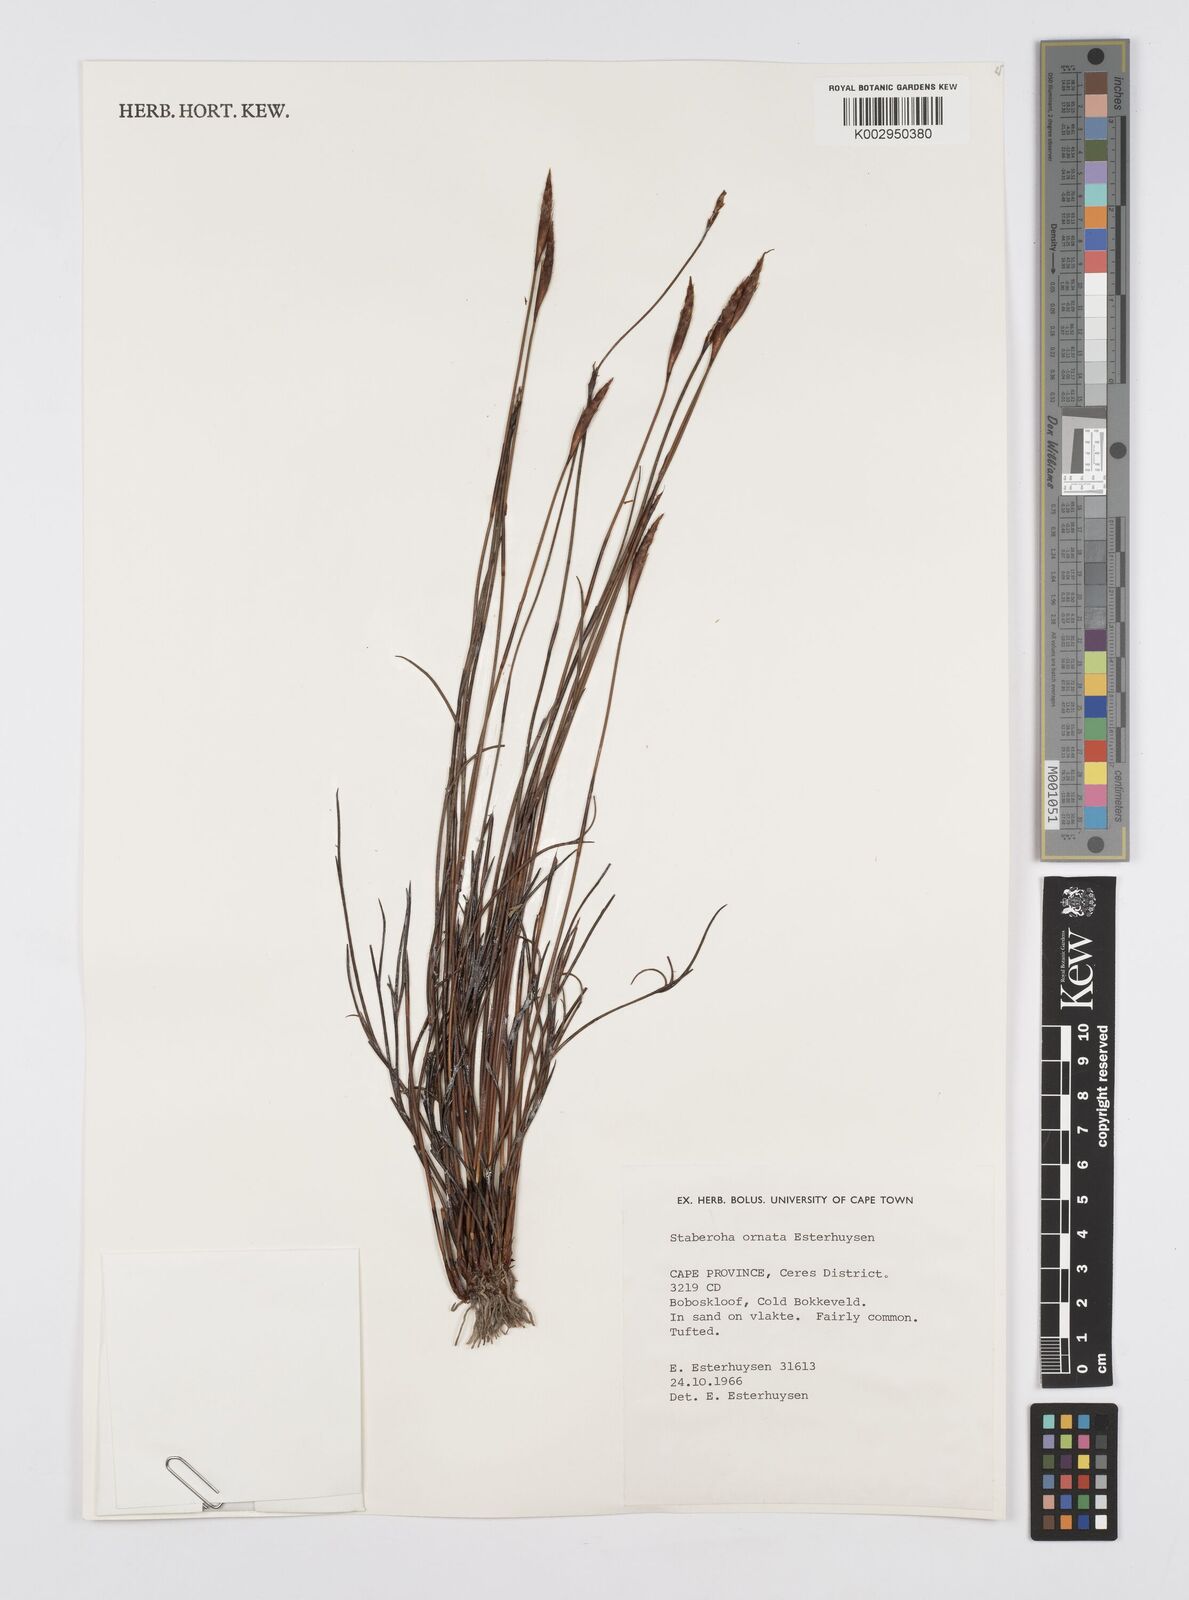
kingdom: Plantae
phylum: Tracheophyta
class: Liliopsida
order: Poales
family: Restionaceae
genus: Staberoha
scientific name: Staberoha ornata
